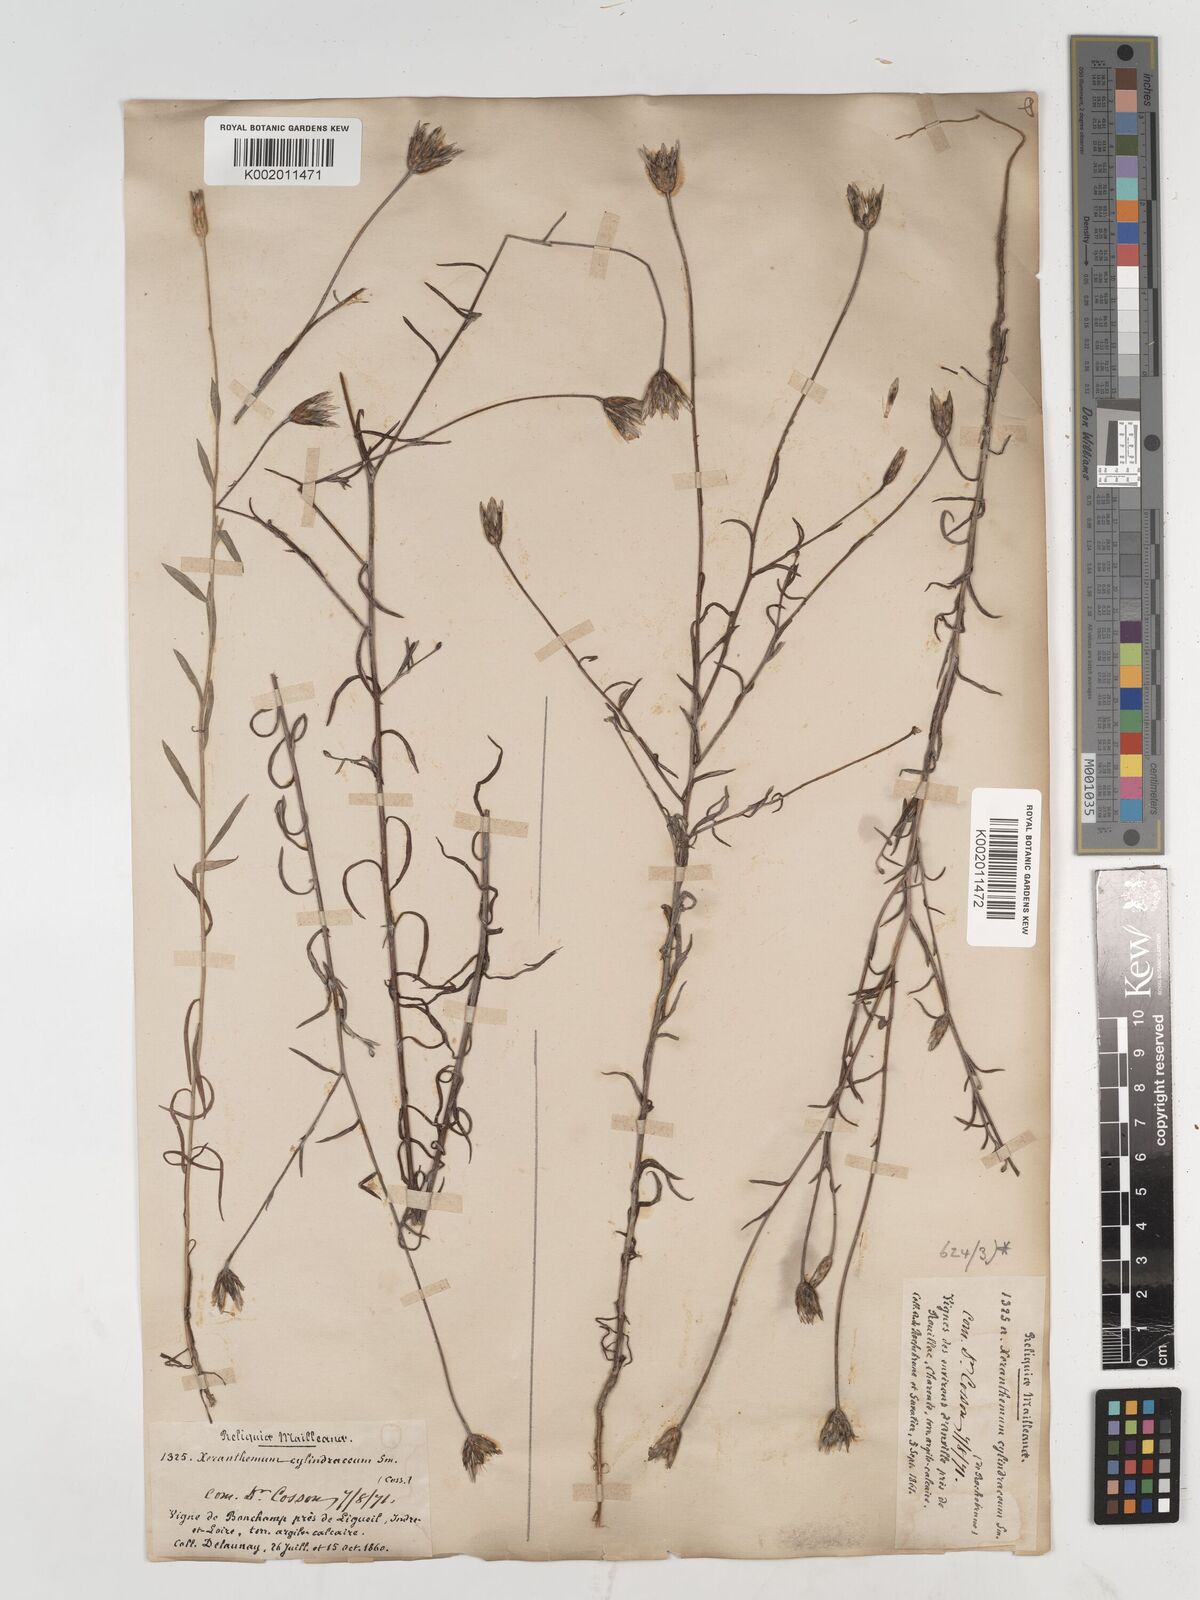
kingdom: Plantae
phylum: Tracheophyta
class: Magnoliopsida
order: Asterales
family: Asteraceae
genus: Xeranthemum
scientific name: Xeranthemum cylindraceum
